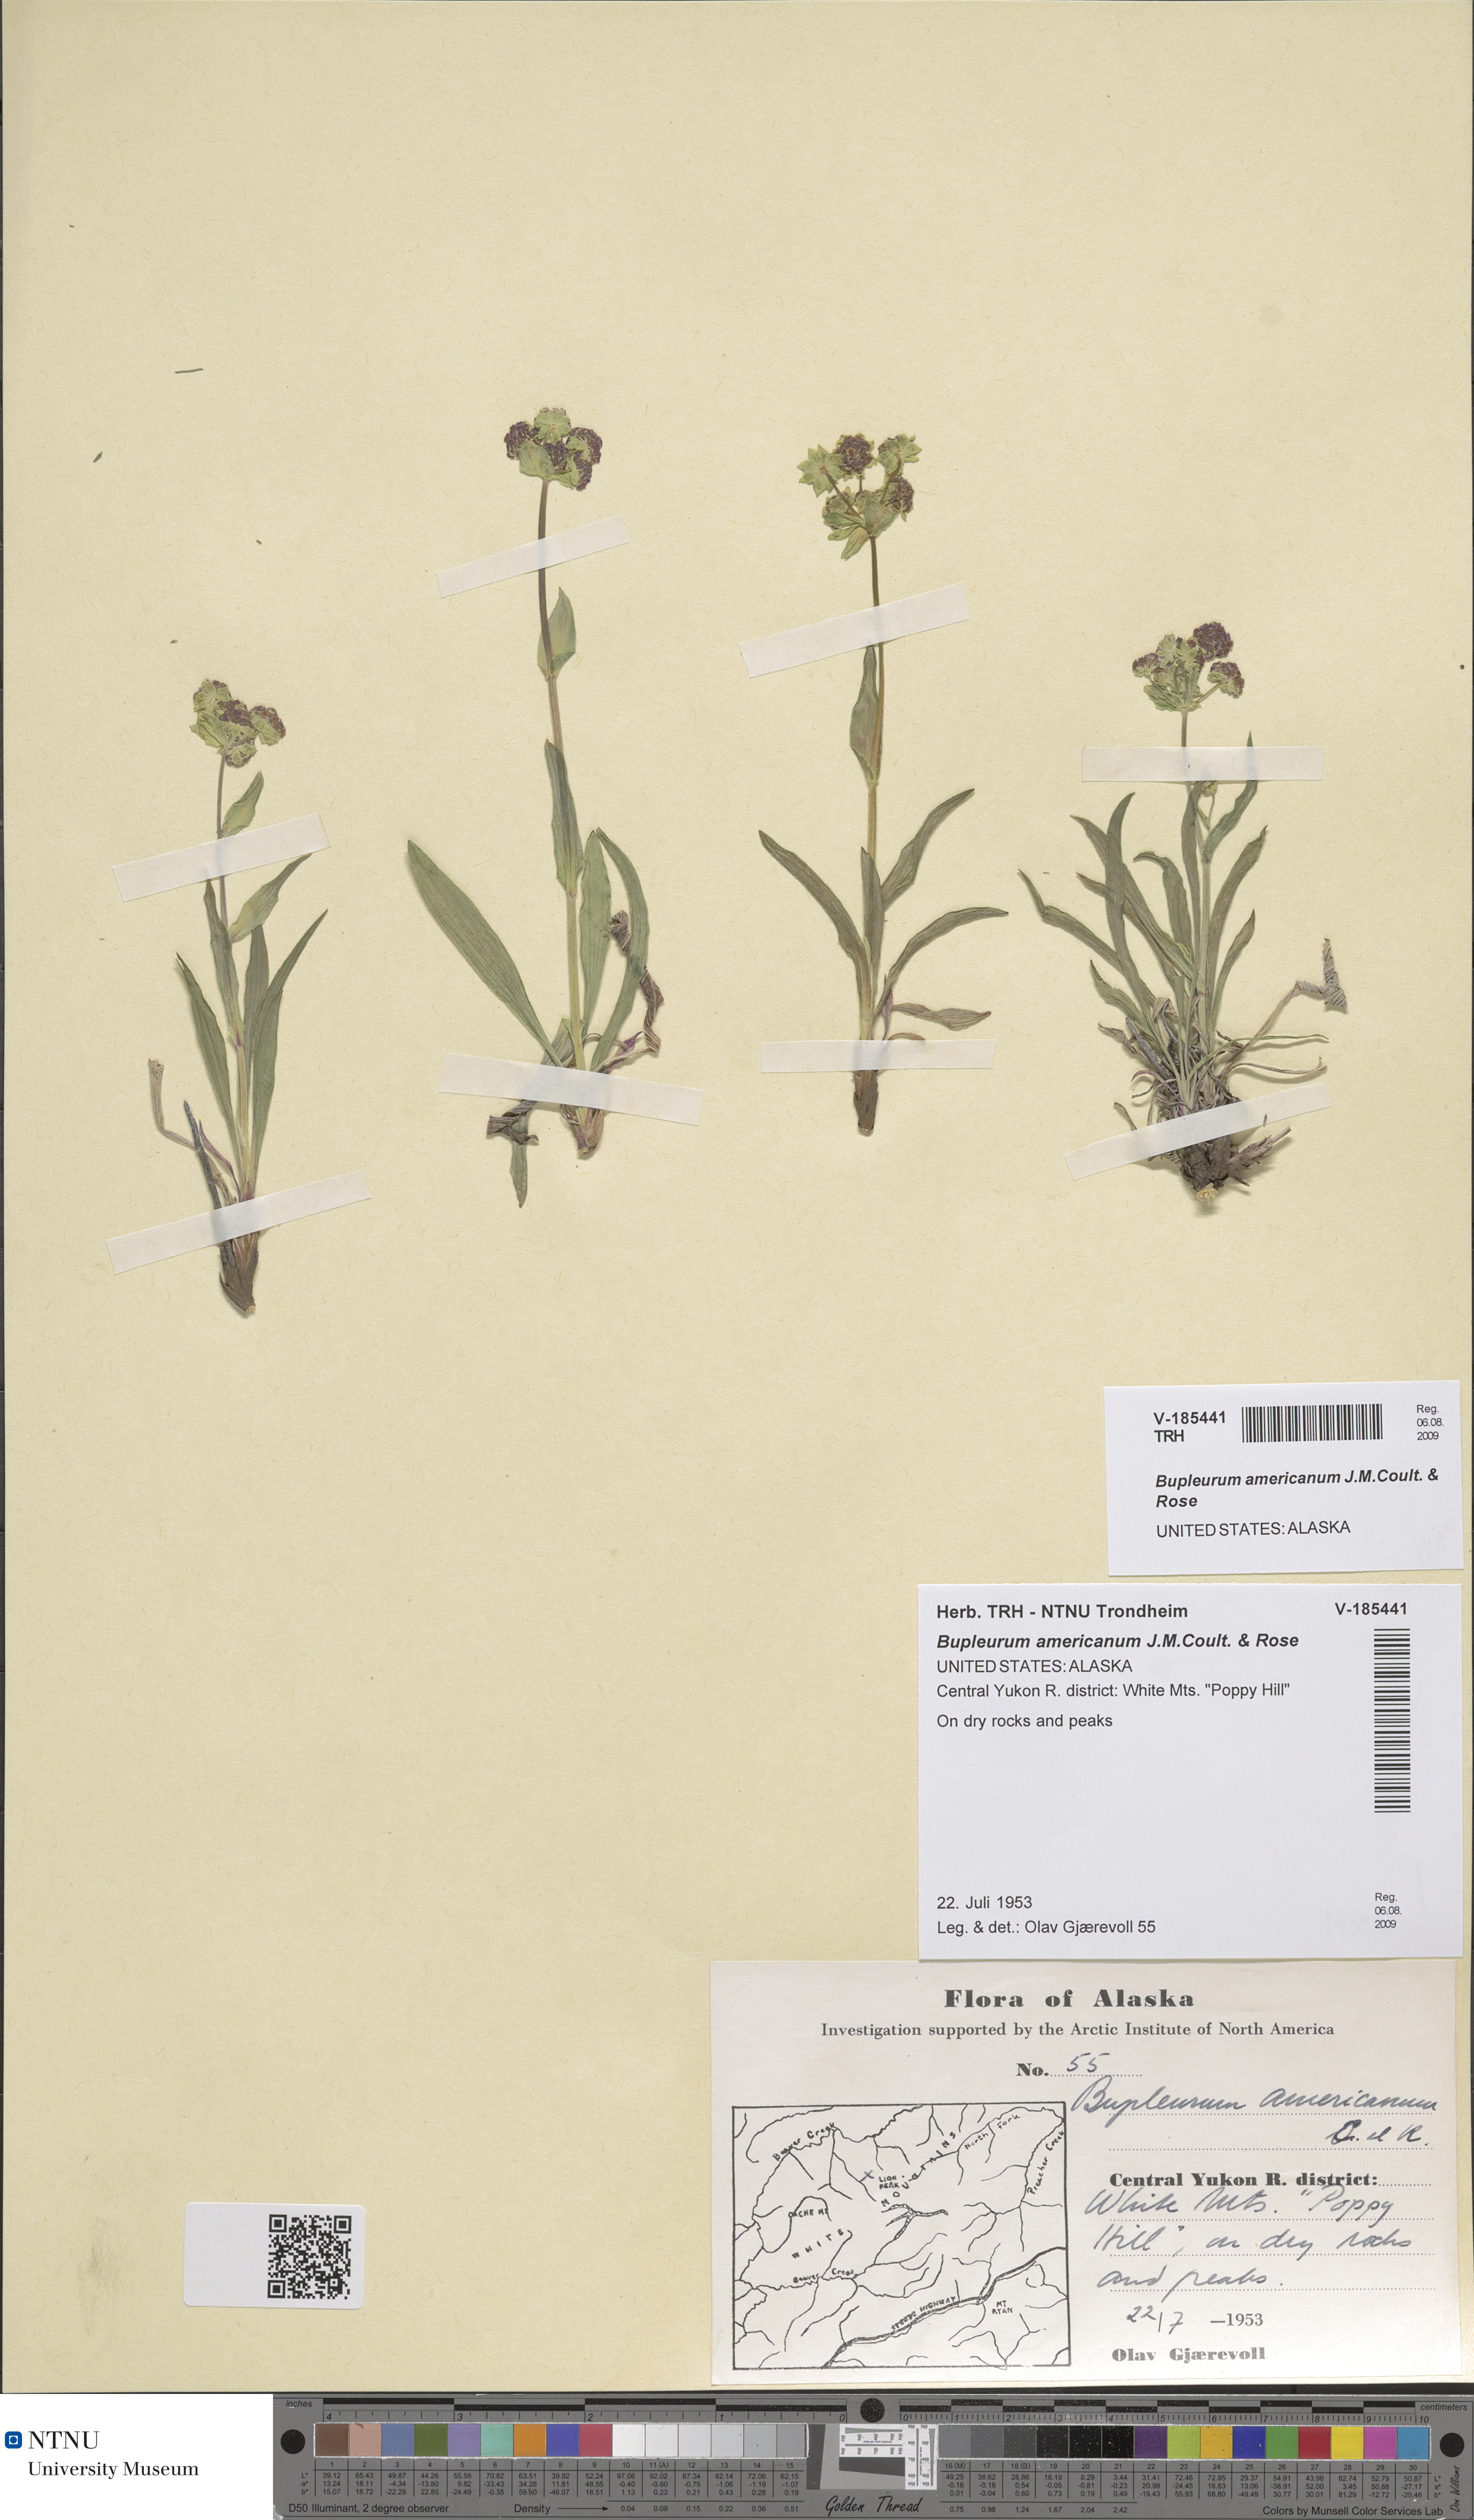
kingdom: Plantae
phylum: Tracheophyta
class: Magnoliopsida
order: Apiales
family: Apiaceae
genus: Bupleurum
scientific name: Bupleurum americanum
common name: American thoroughwax
